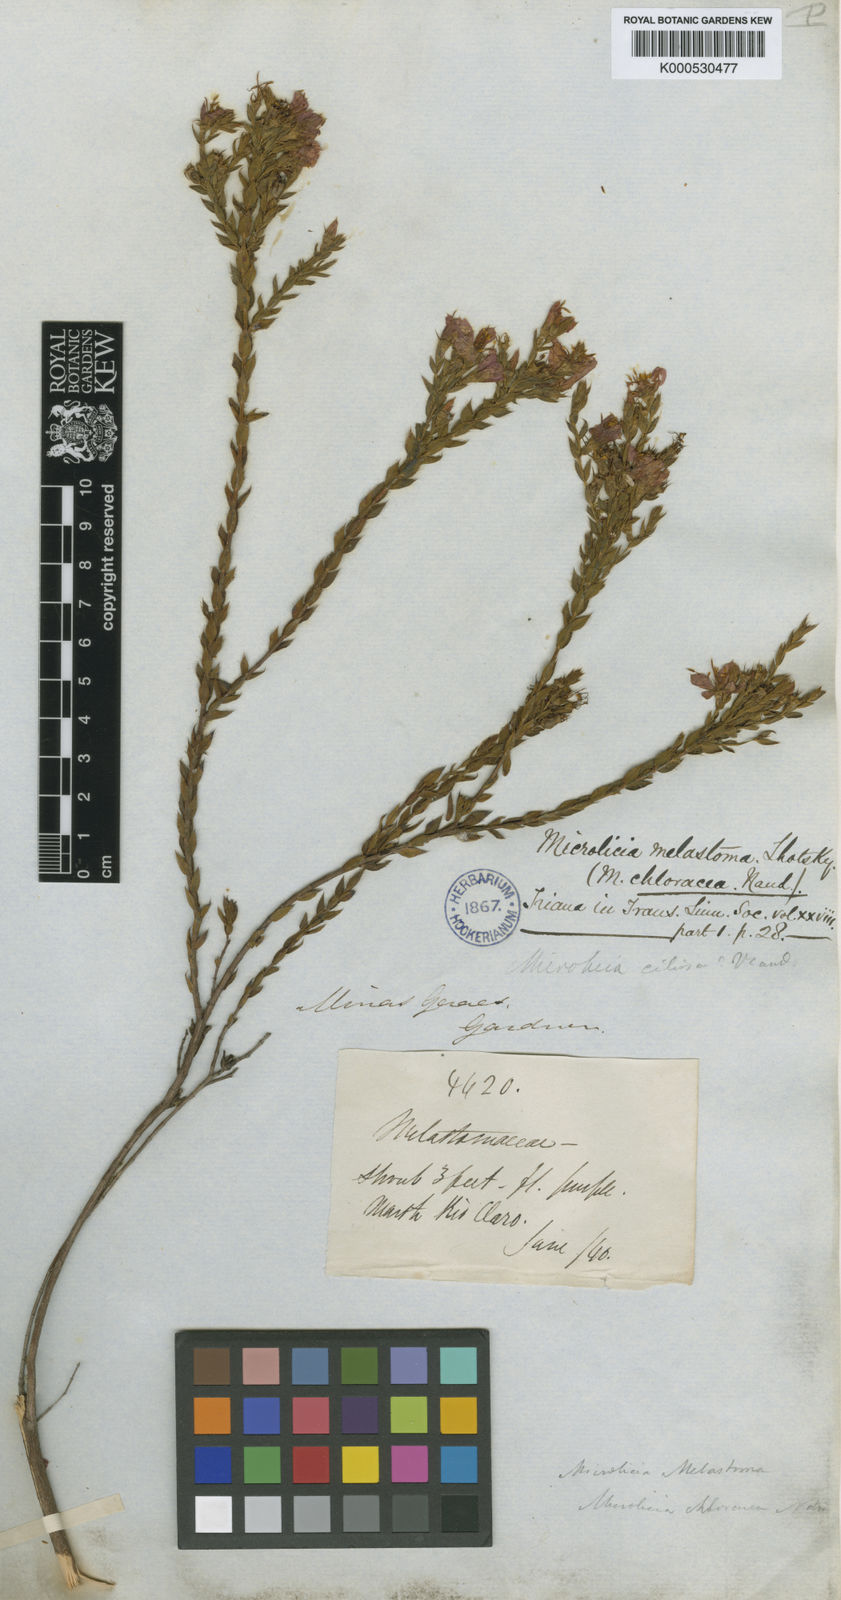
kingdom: Plantae
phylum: Tracheophyta
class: Magnoliopsida
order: Myrtales
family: Melastomataceae
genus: Microlicia
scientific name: Microlicia
